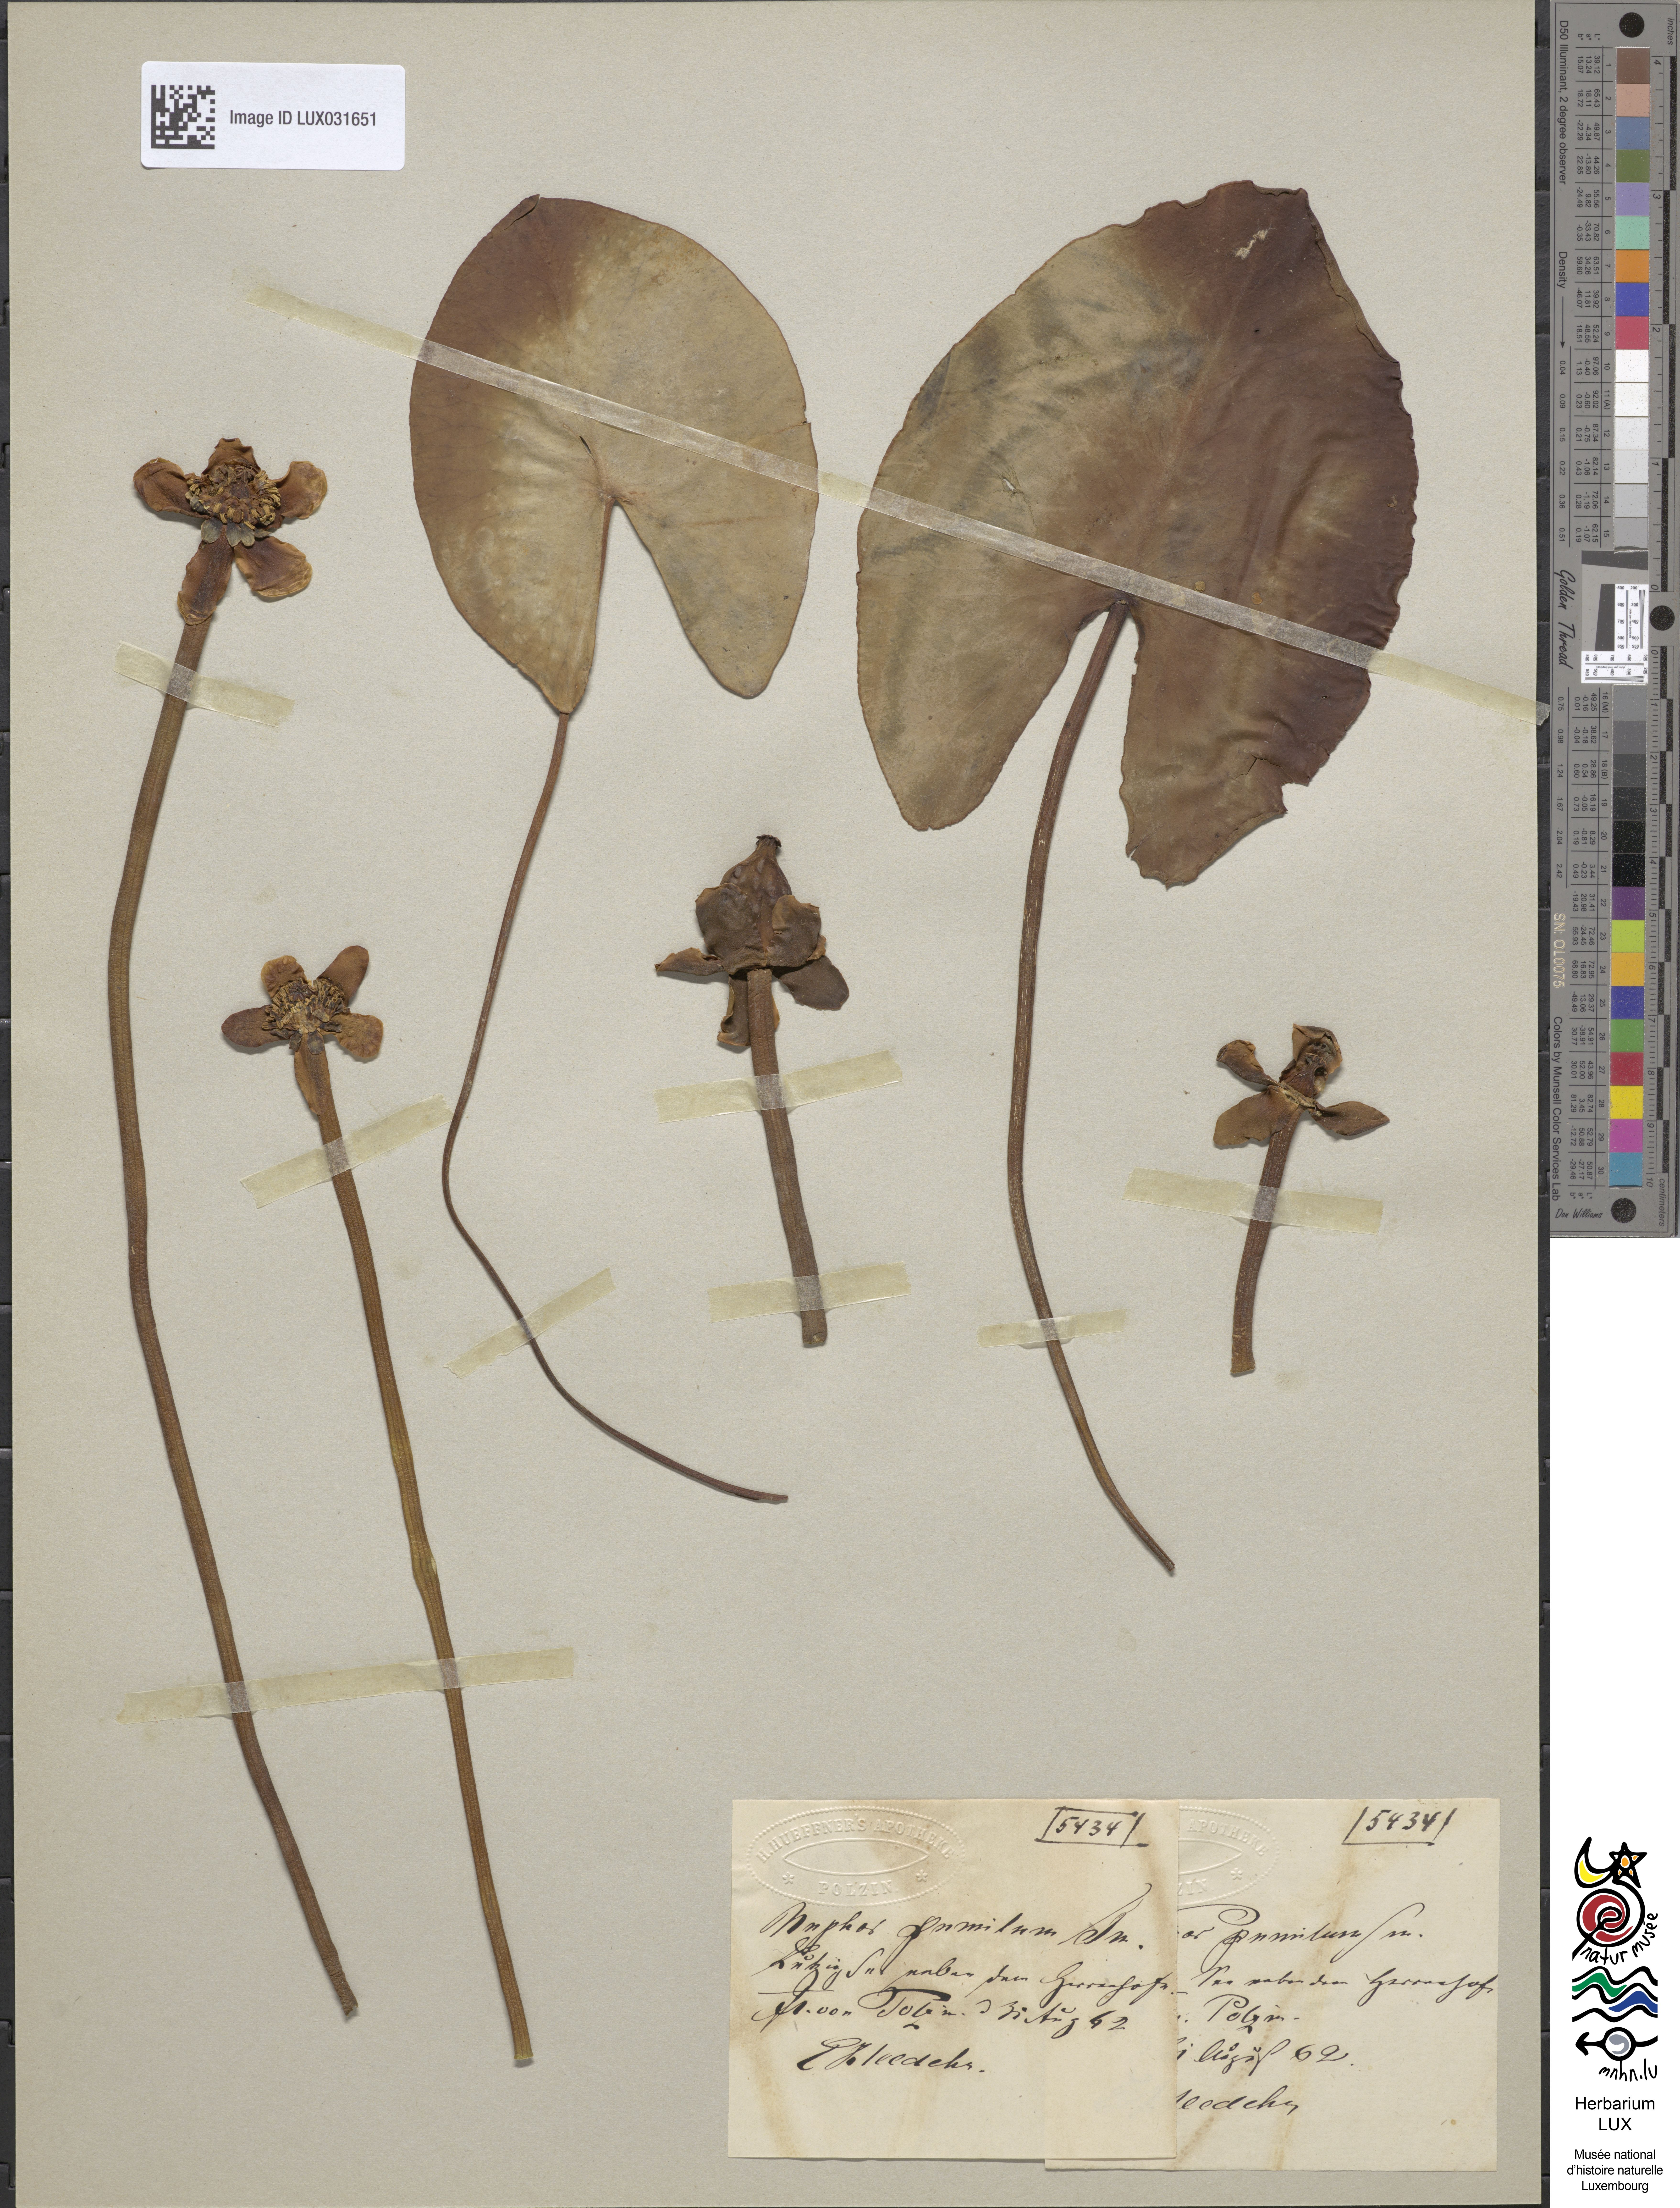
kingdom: Plantae
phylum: Tracheophyta
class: Magnoliopsida
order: Nymphaeales
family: Nymphaeaceae
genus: Nuphar
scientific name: Nuphar pumila
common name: Least water-lily
